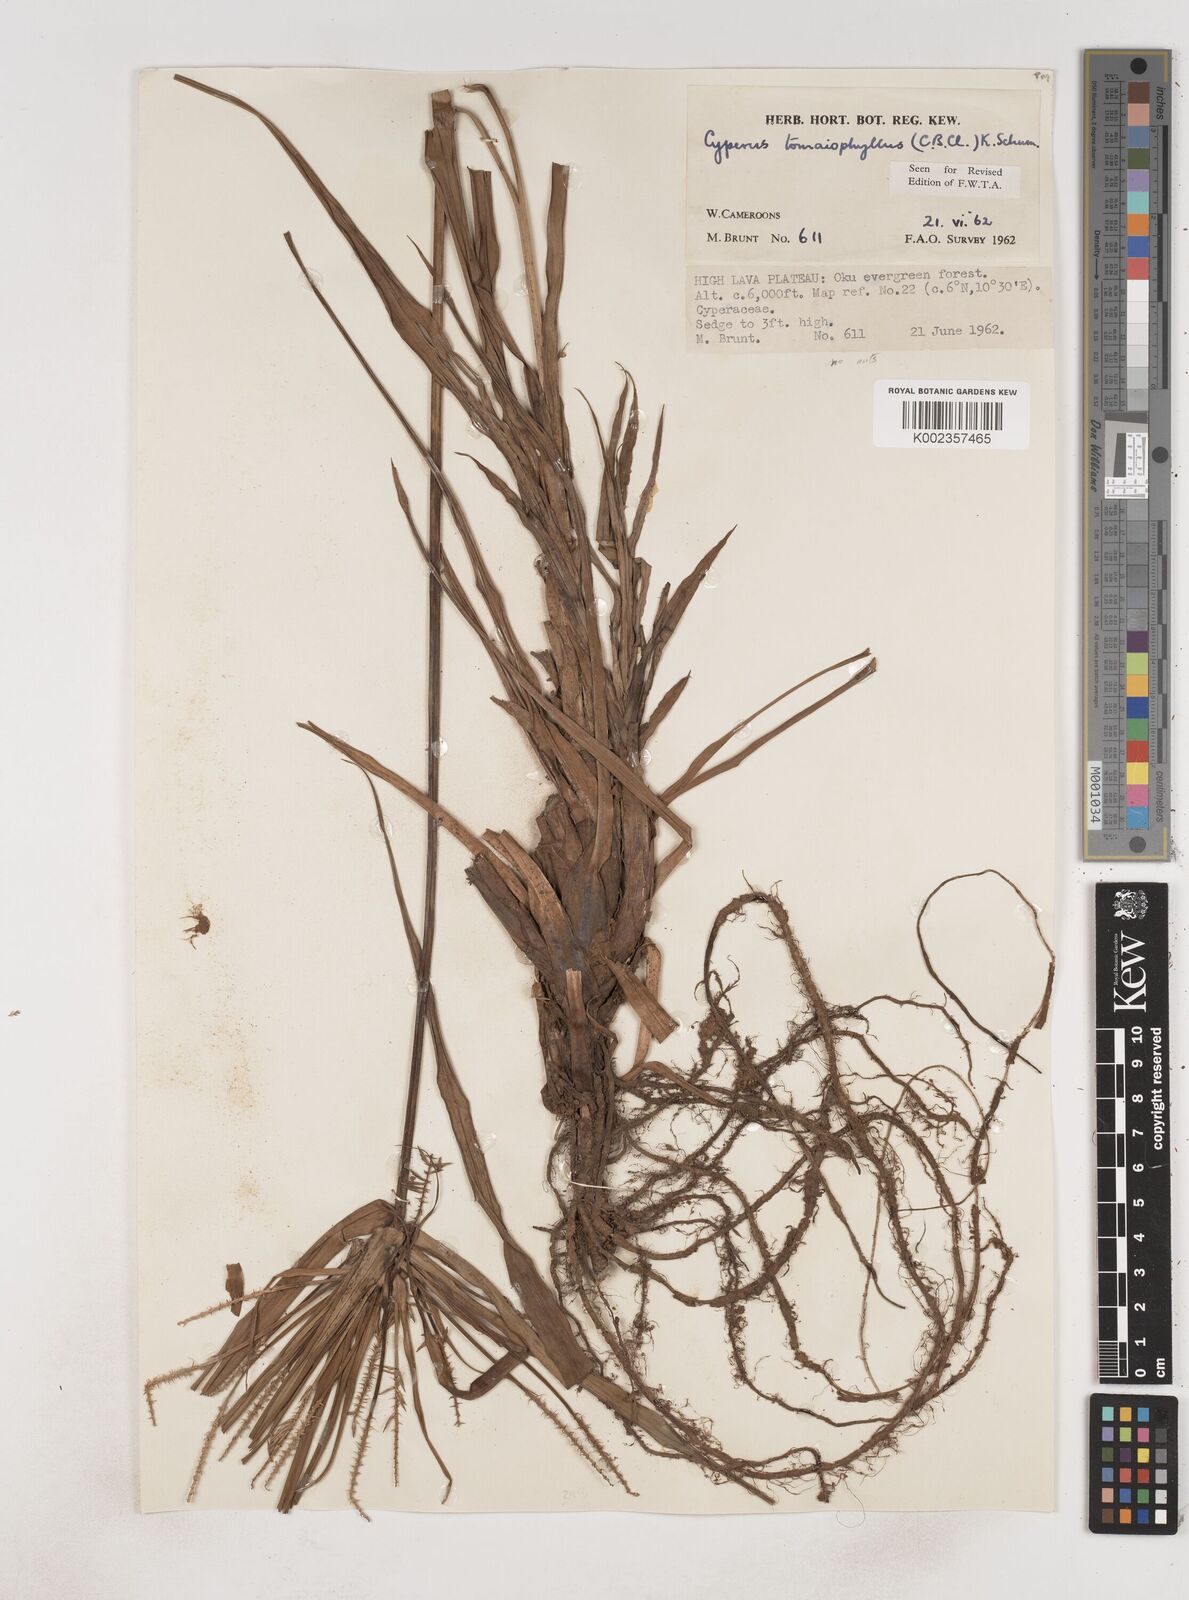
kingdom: Plantae
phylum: Tracheophyta
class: Liliopsida
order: Poales
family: Cyperaceae
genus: Cyperus
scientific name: Cyperus tomaiophyllus
